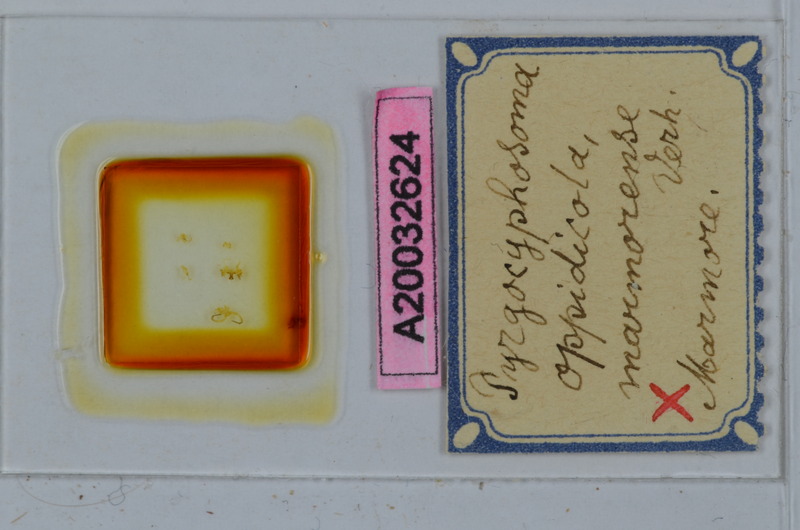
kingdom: Animalia
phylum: Arthropoda
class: Diplopoda
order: Chordeumatida
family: Craspedosomatidae
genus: Pyrgocyphosoma
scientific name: Pyrgocyphosoma marmorense
